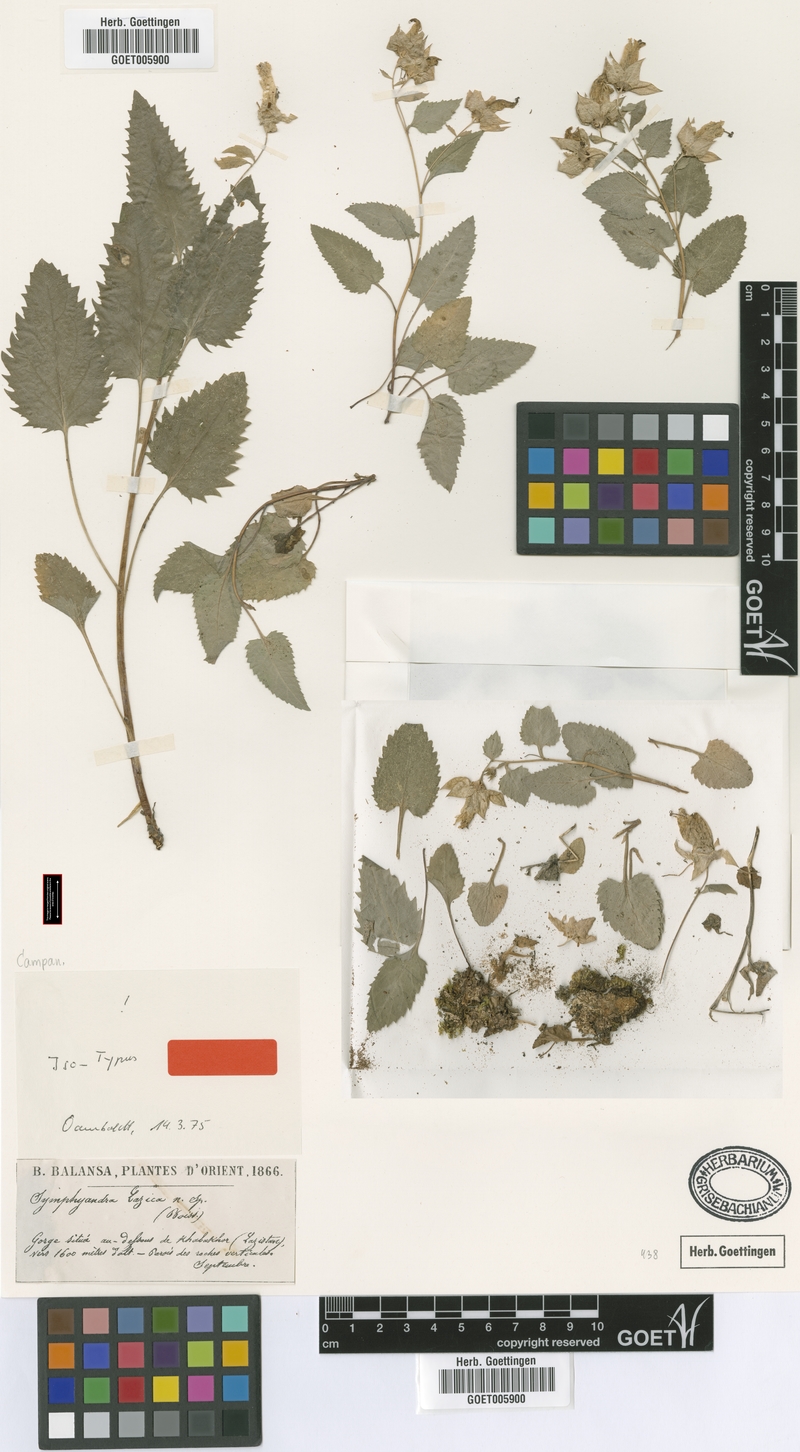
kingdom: Plantae
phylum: Tracheophyta
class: Magnoliopsida
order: Asterales
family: Campanulaceae
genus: Campanula
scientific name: Campanula lazica
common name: Lazian campanula
